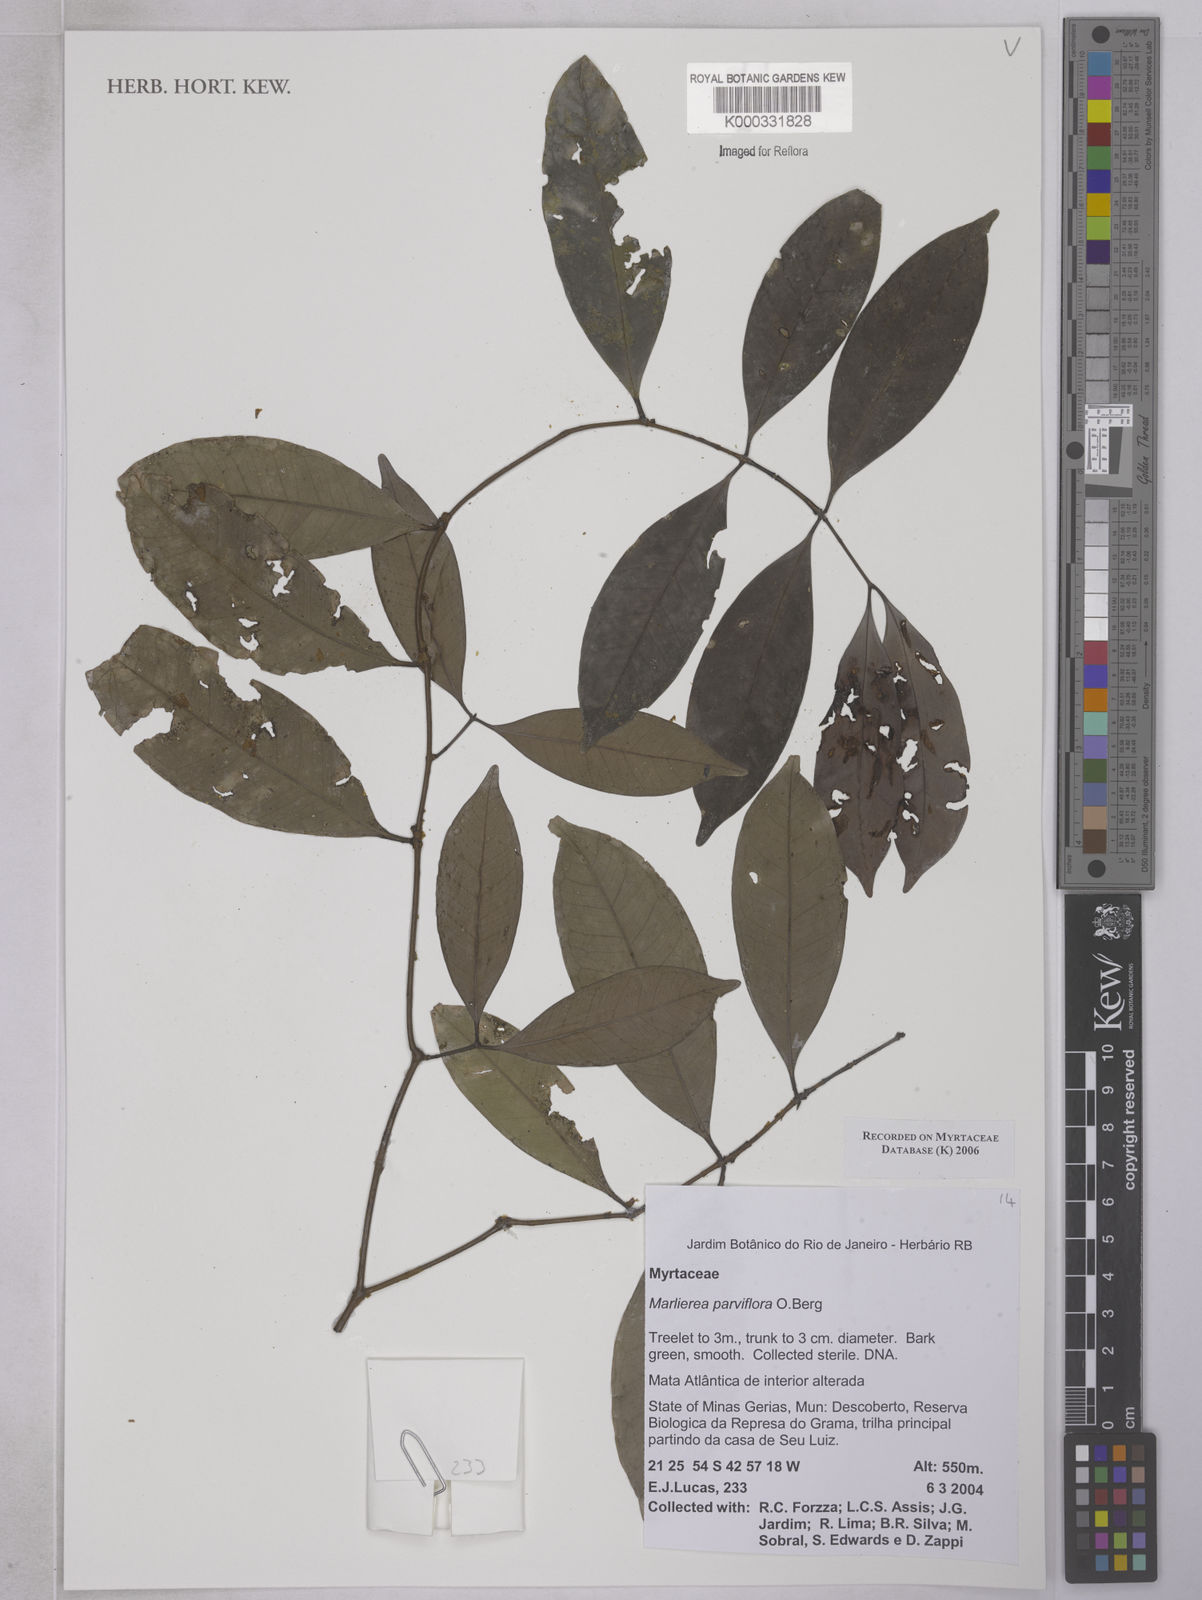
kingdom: Plantae
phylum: Tracheophyta
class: Magnoliopsida
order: Myrtales
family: Myrtaceae
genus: Marlierea
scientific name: Marlierea
